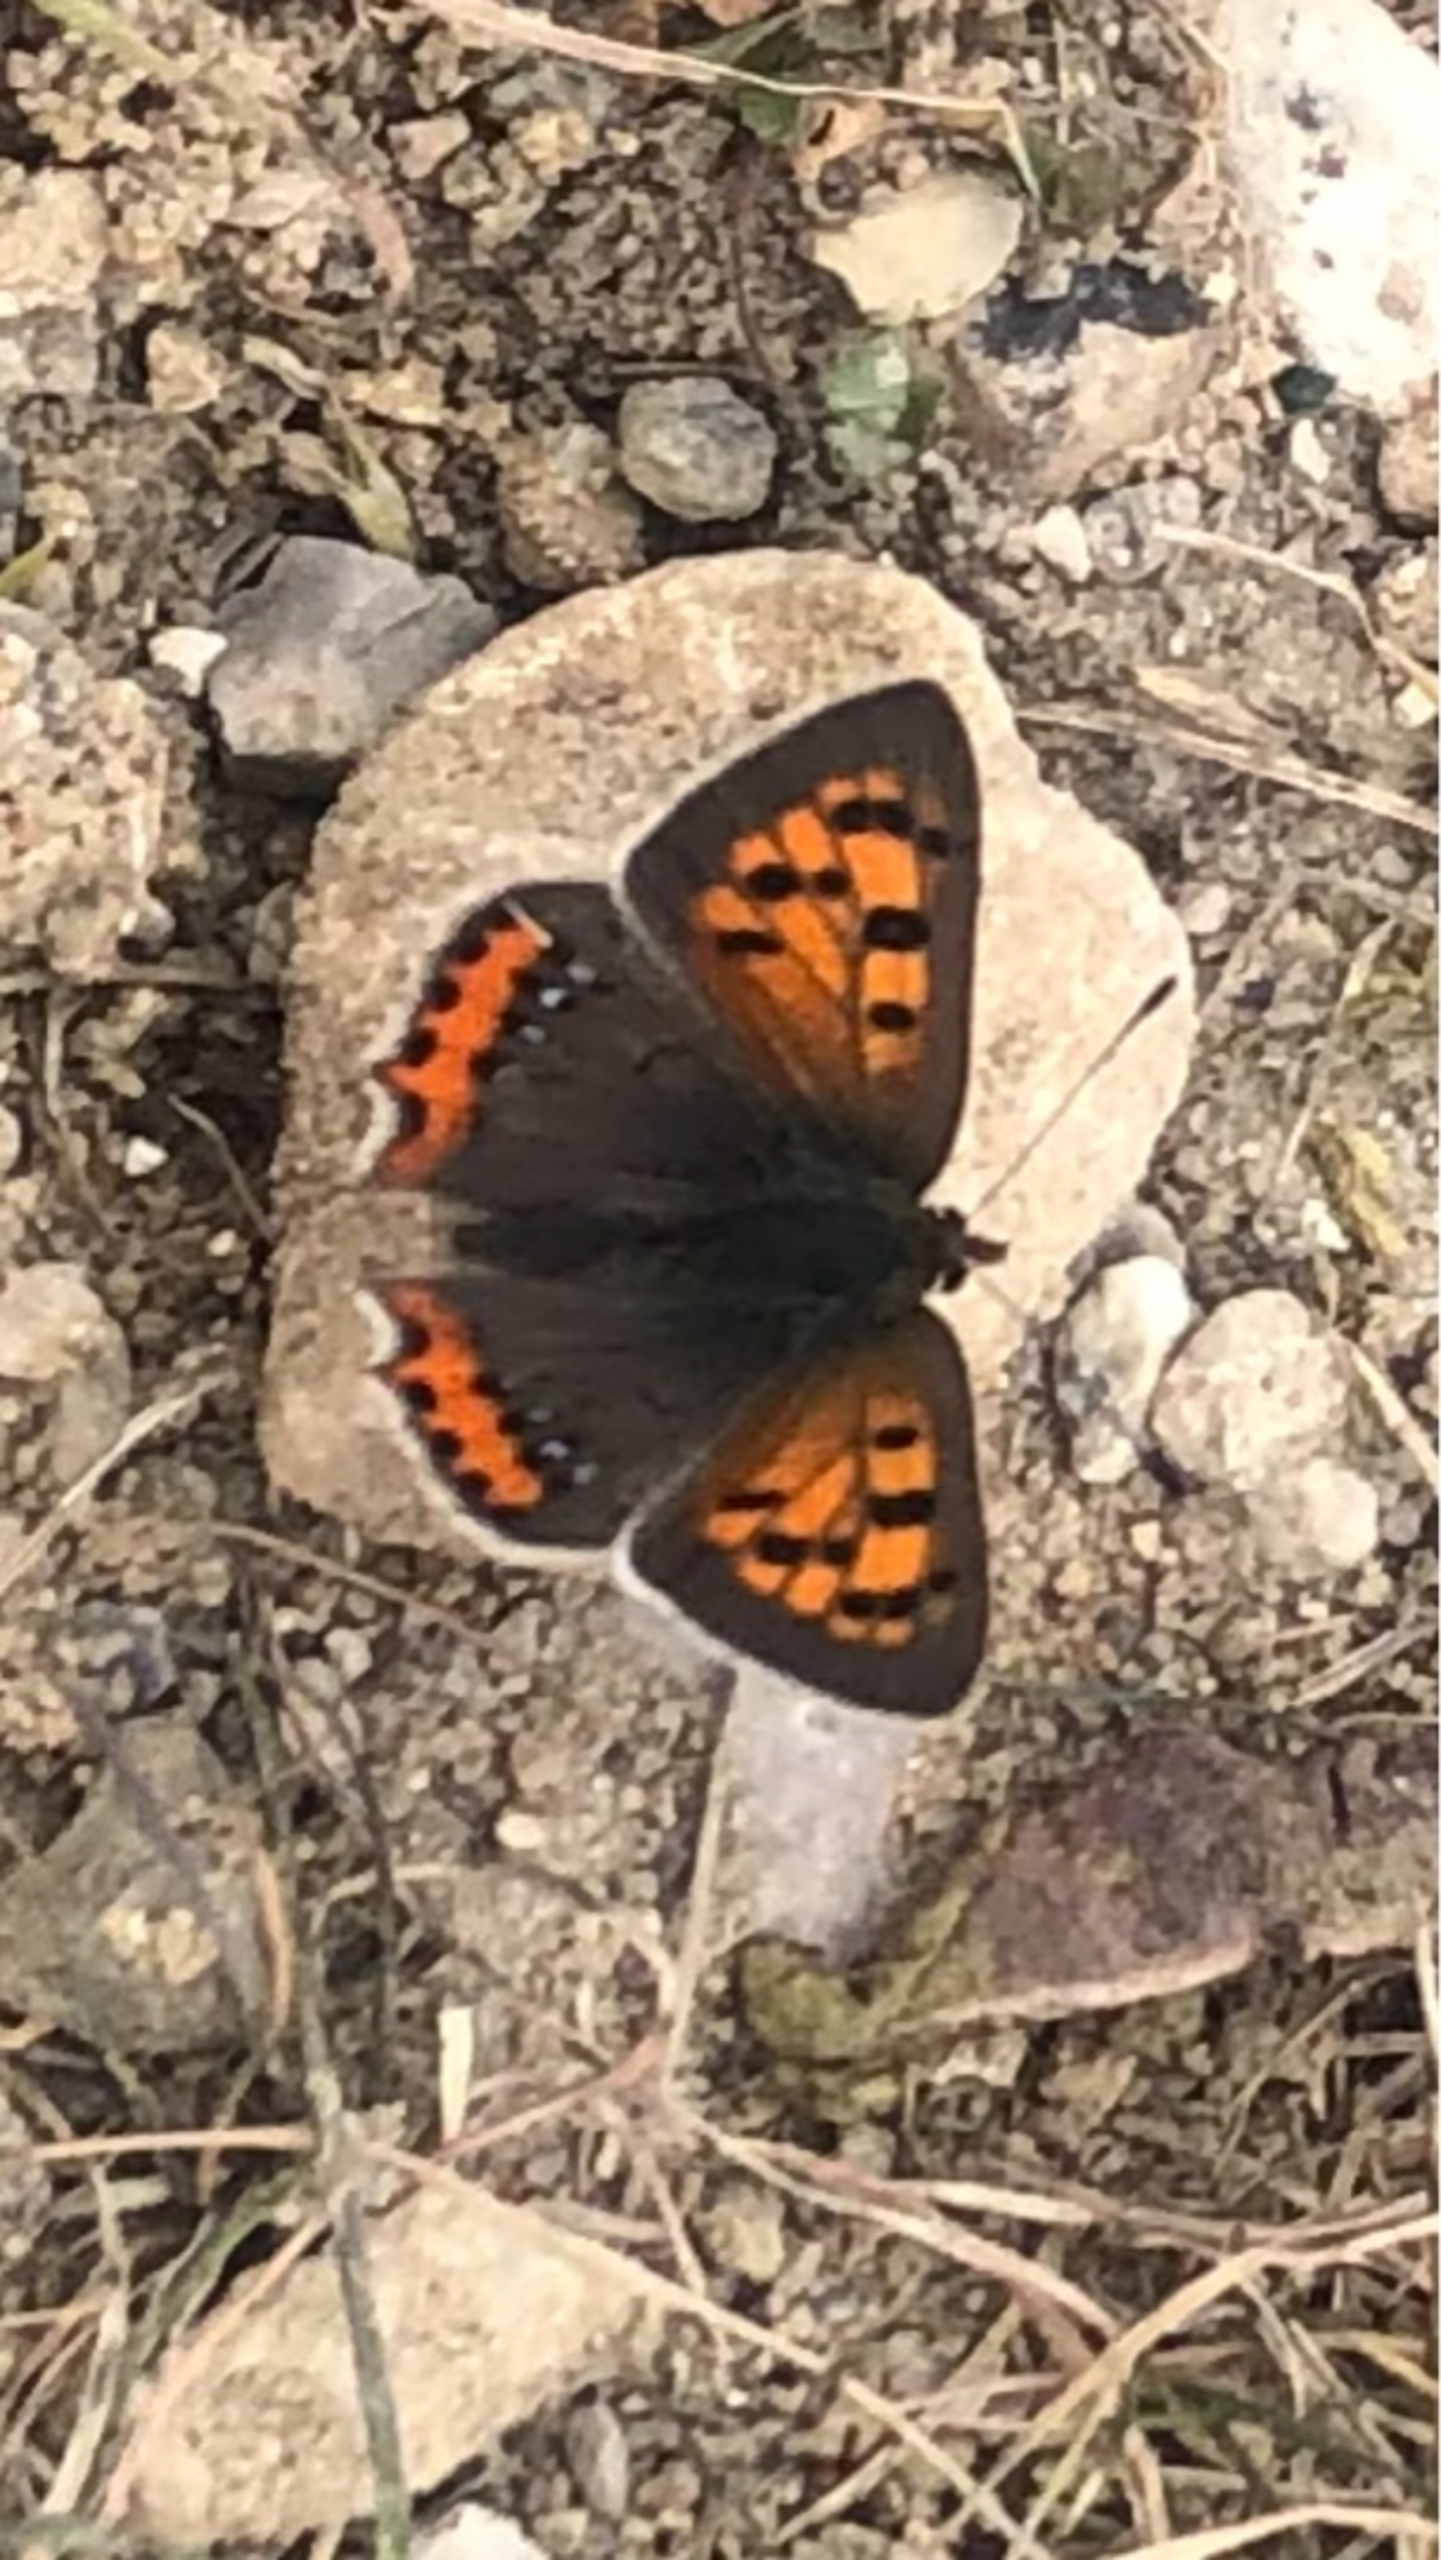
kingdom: Animalia
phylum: Arthropoda
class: Insecta
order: Lepidoptera
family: Lycaenidae
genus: Lycaena
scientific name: Lycaena phlaeas
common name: Lille ildfugl
